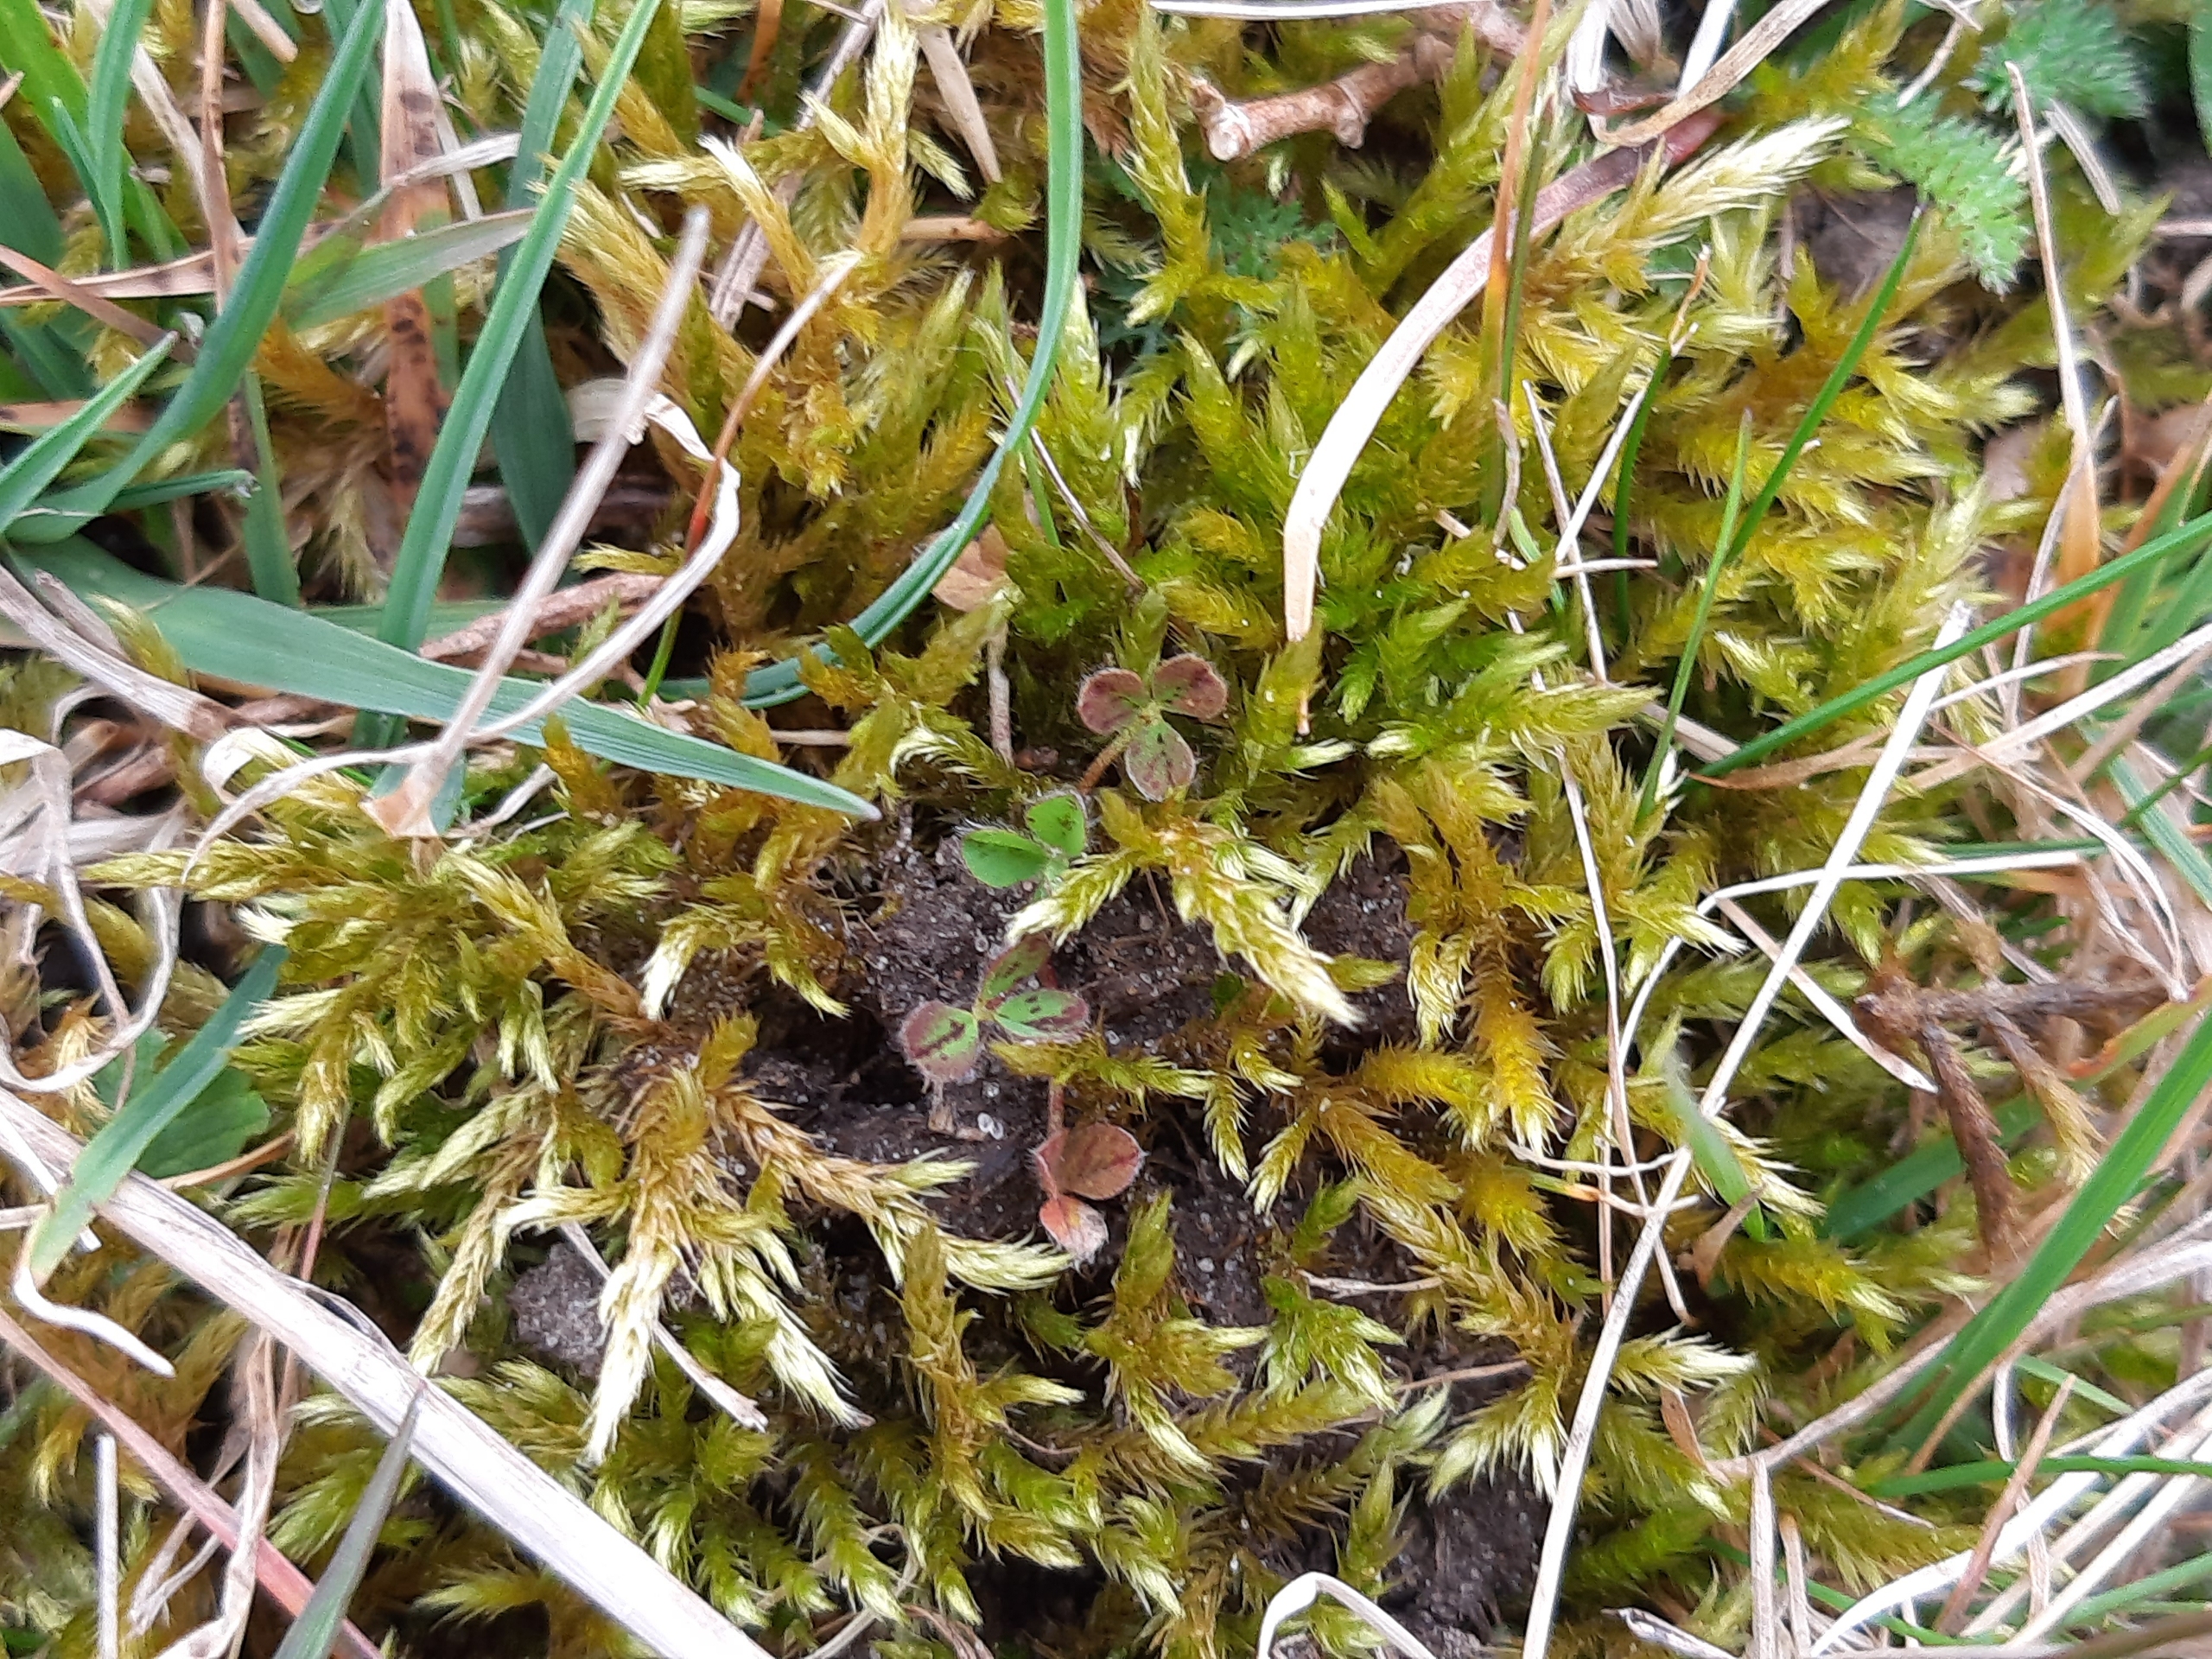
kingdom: Plantae
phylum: Bryophyta
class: Bryopsida
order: Hypnales
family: Brachytheciaceae
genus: Homalothecium
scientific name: Homalothecium lutescens
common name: Gul krumkapsel
